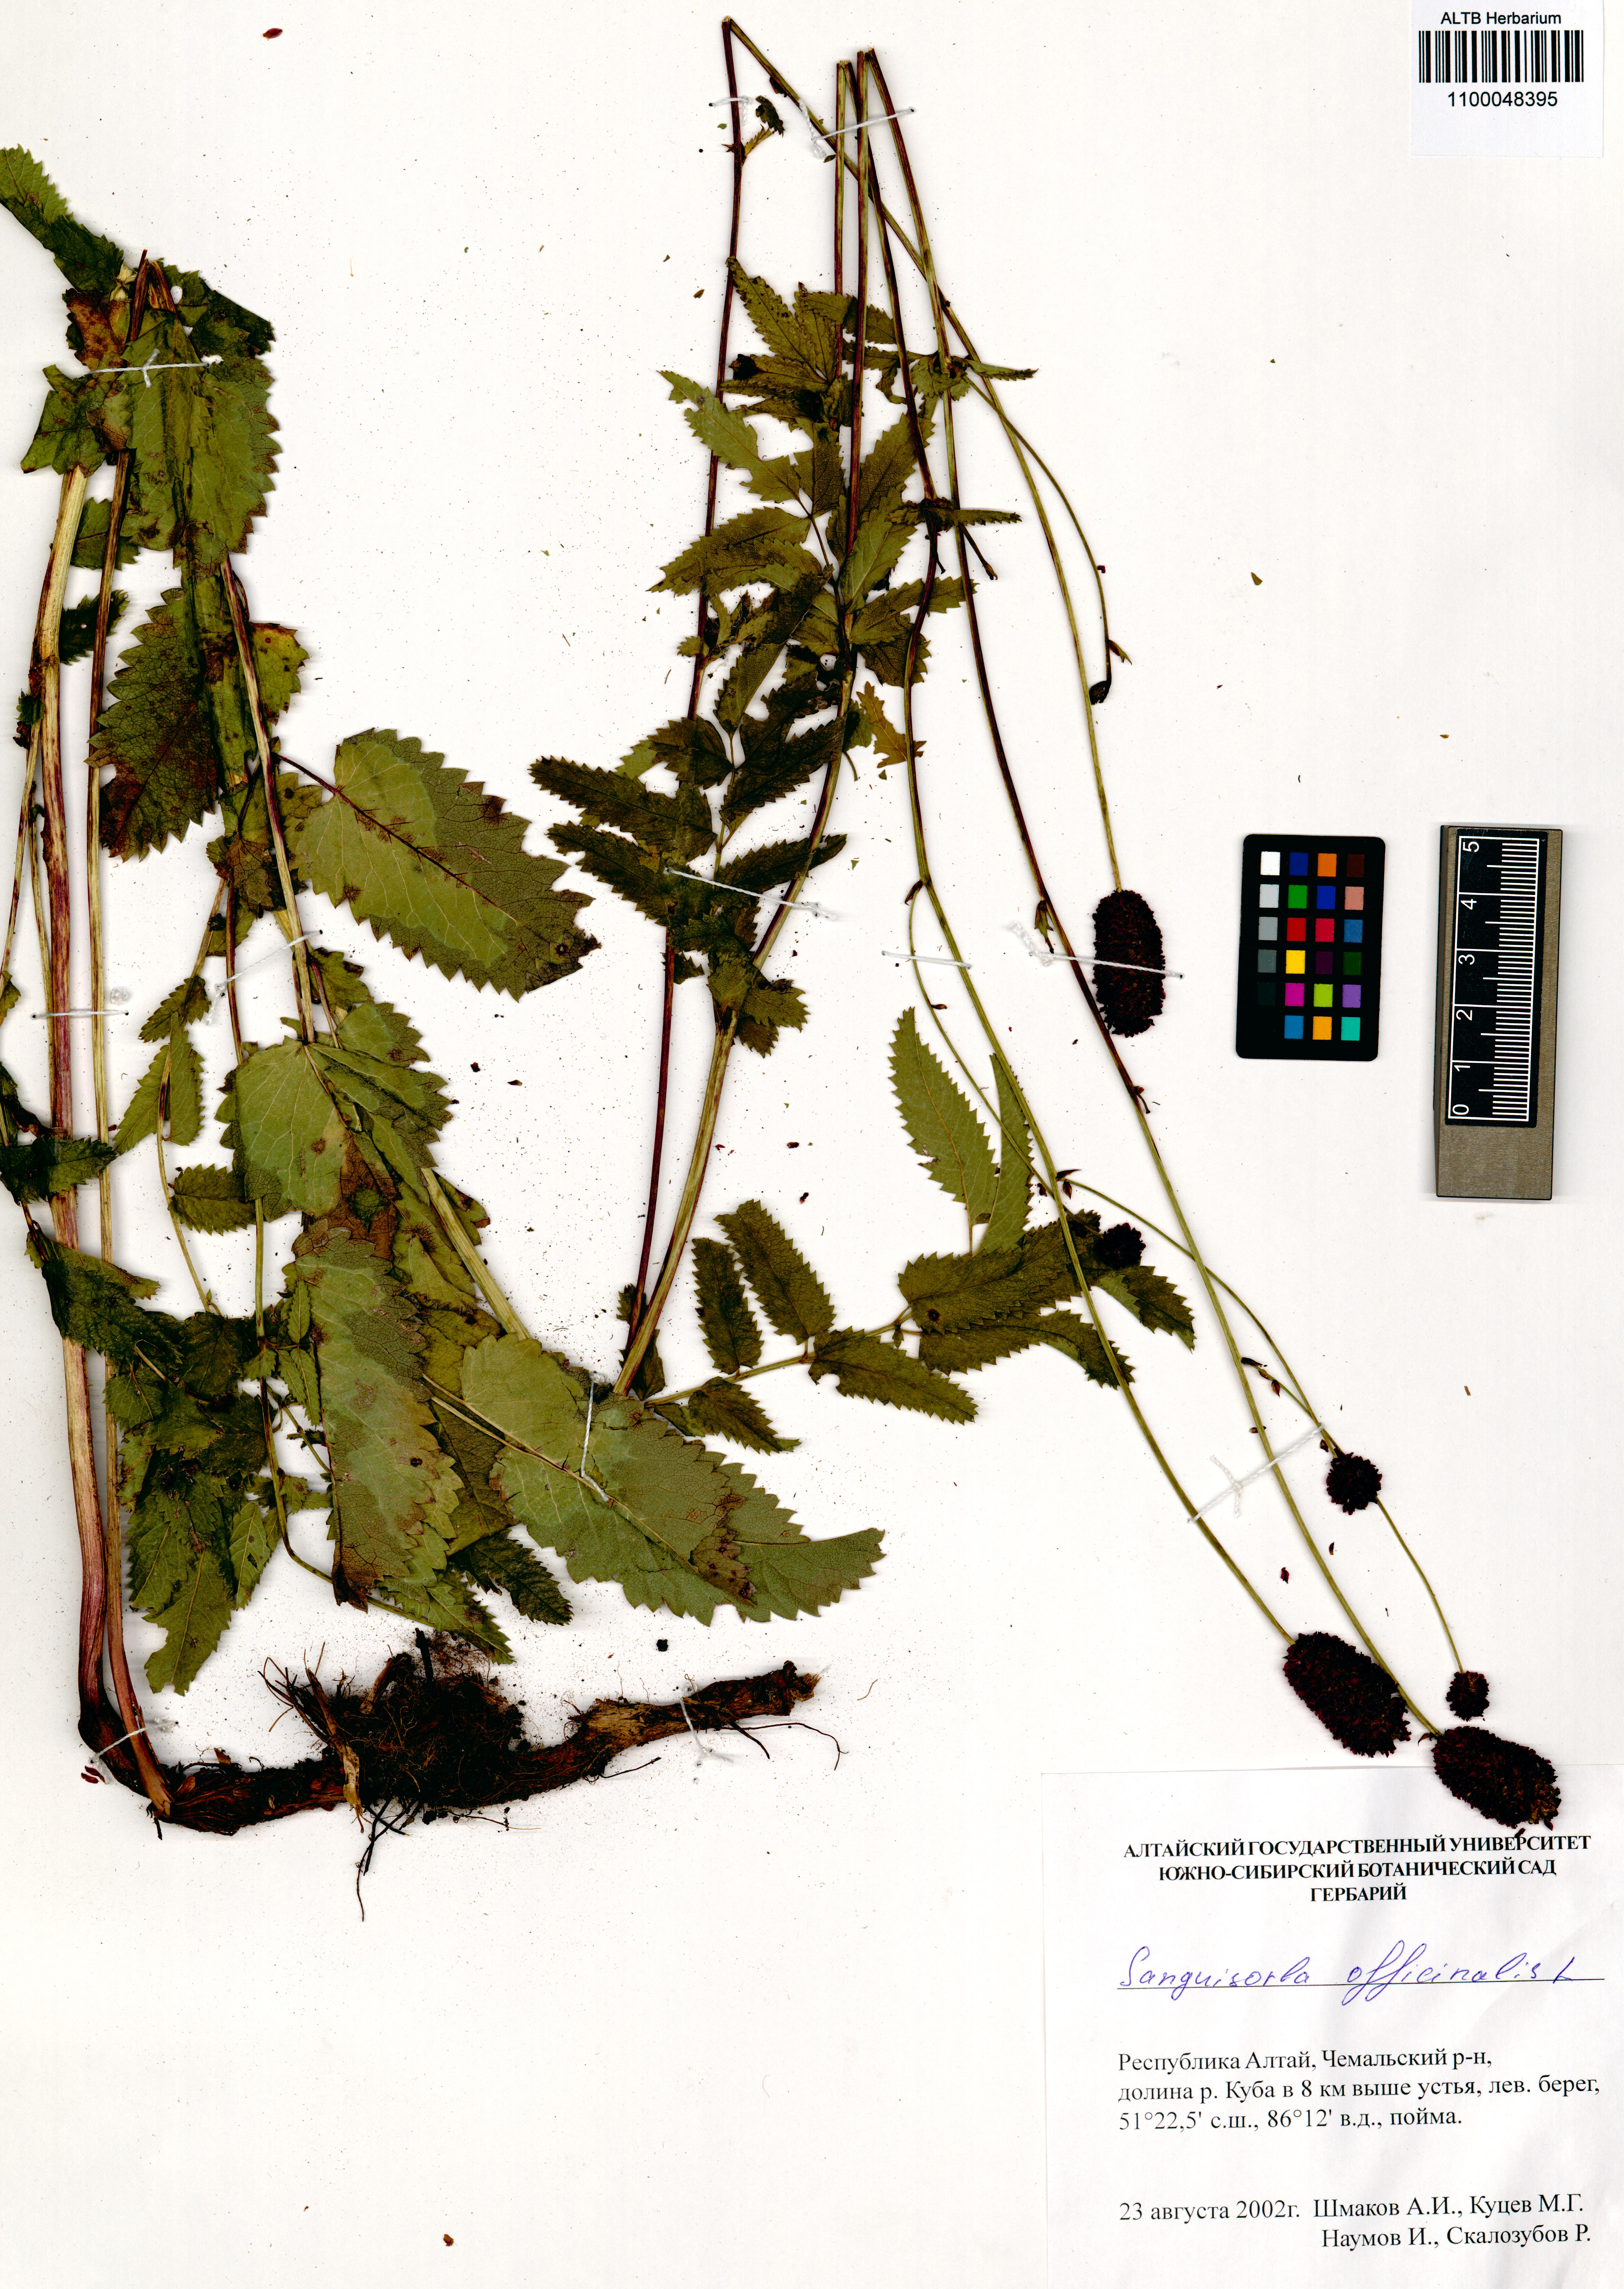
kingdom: Plantae
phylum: Tracheophyta
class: Magnoliopsida
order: Rosales
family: Rosaceae
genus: Sanguisorba
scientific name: Sanguisorba officinalis
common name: Great burnet
